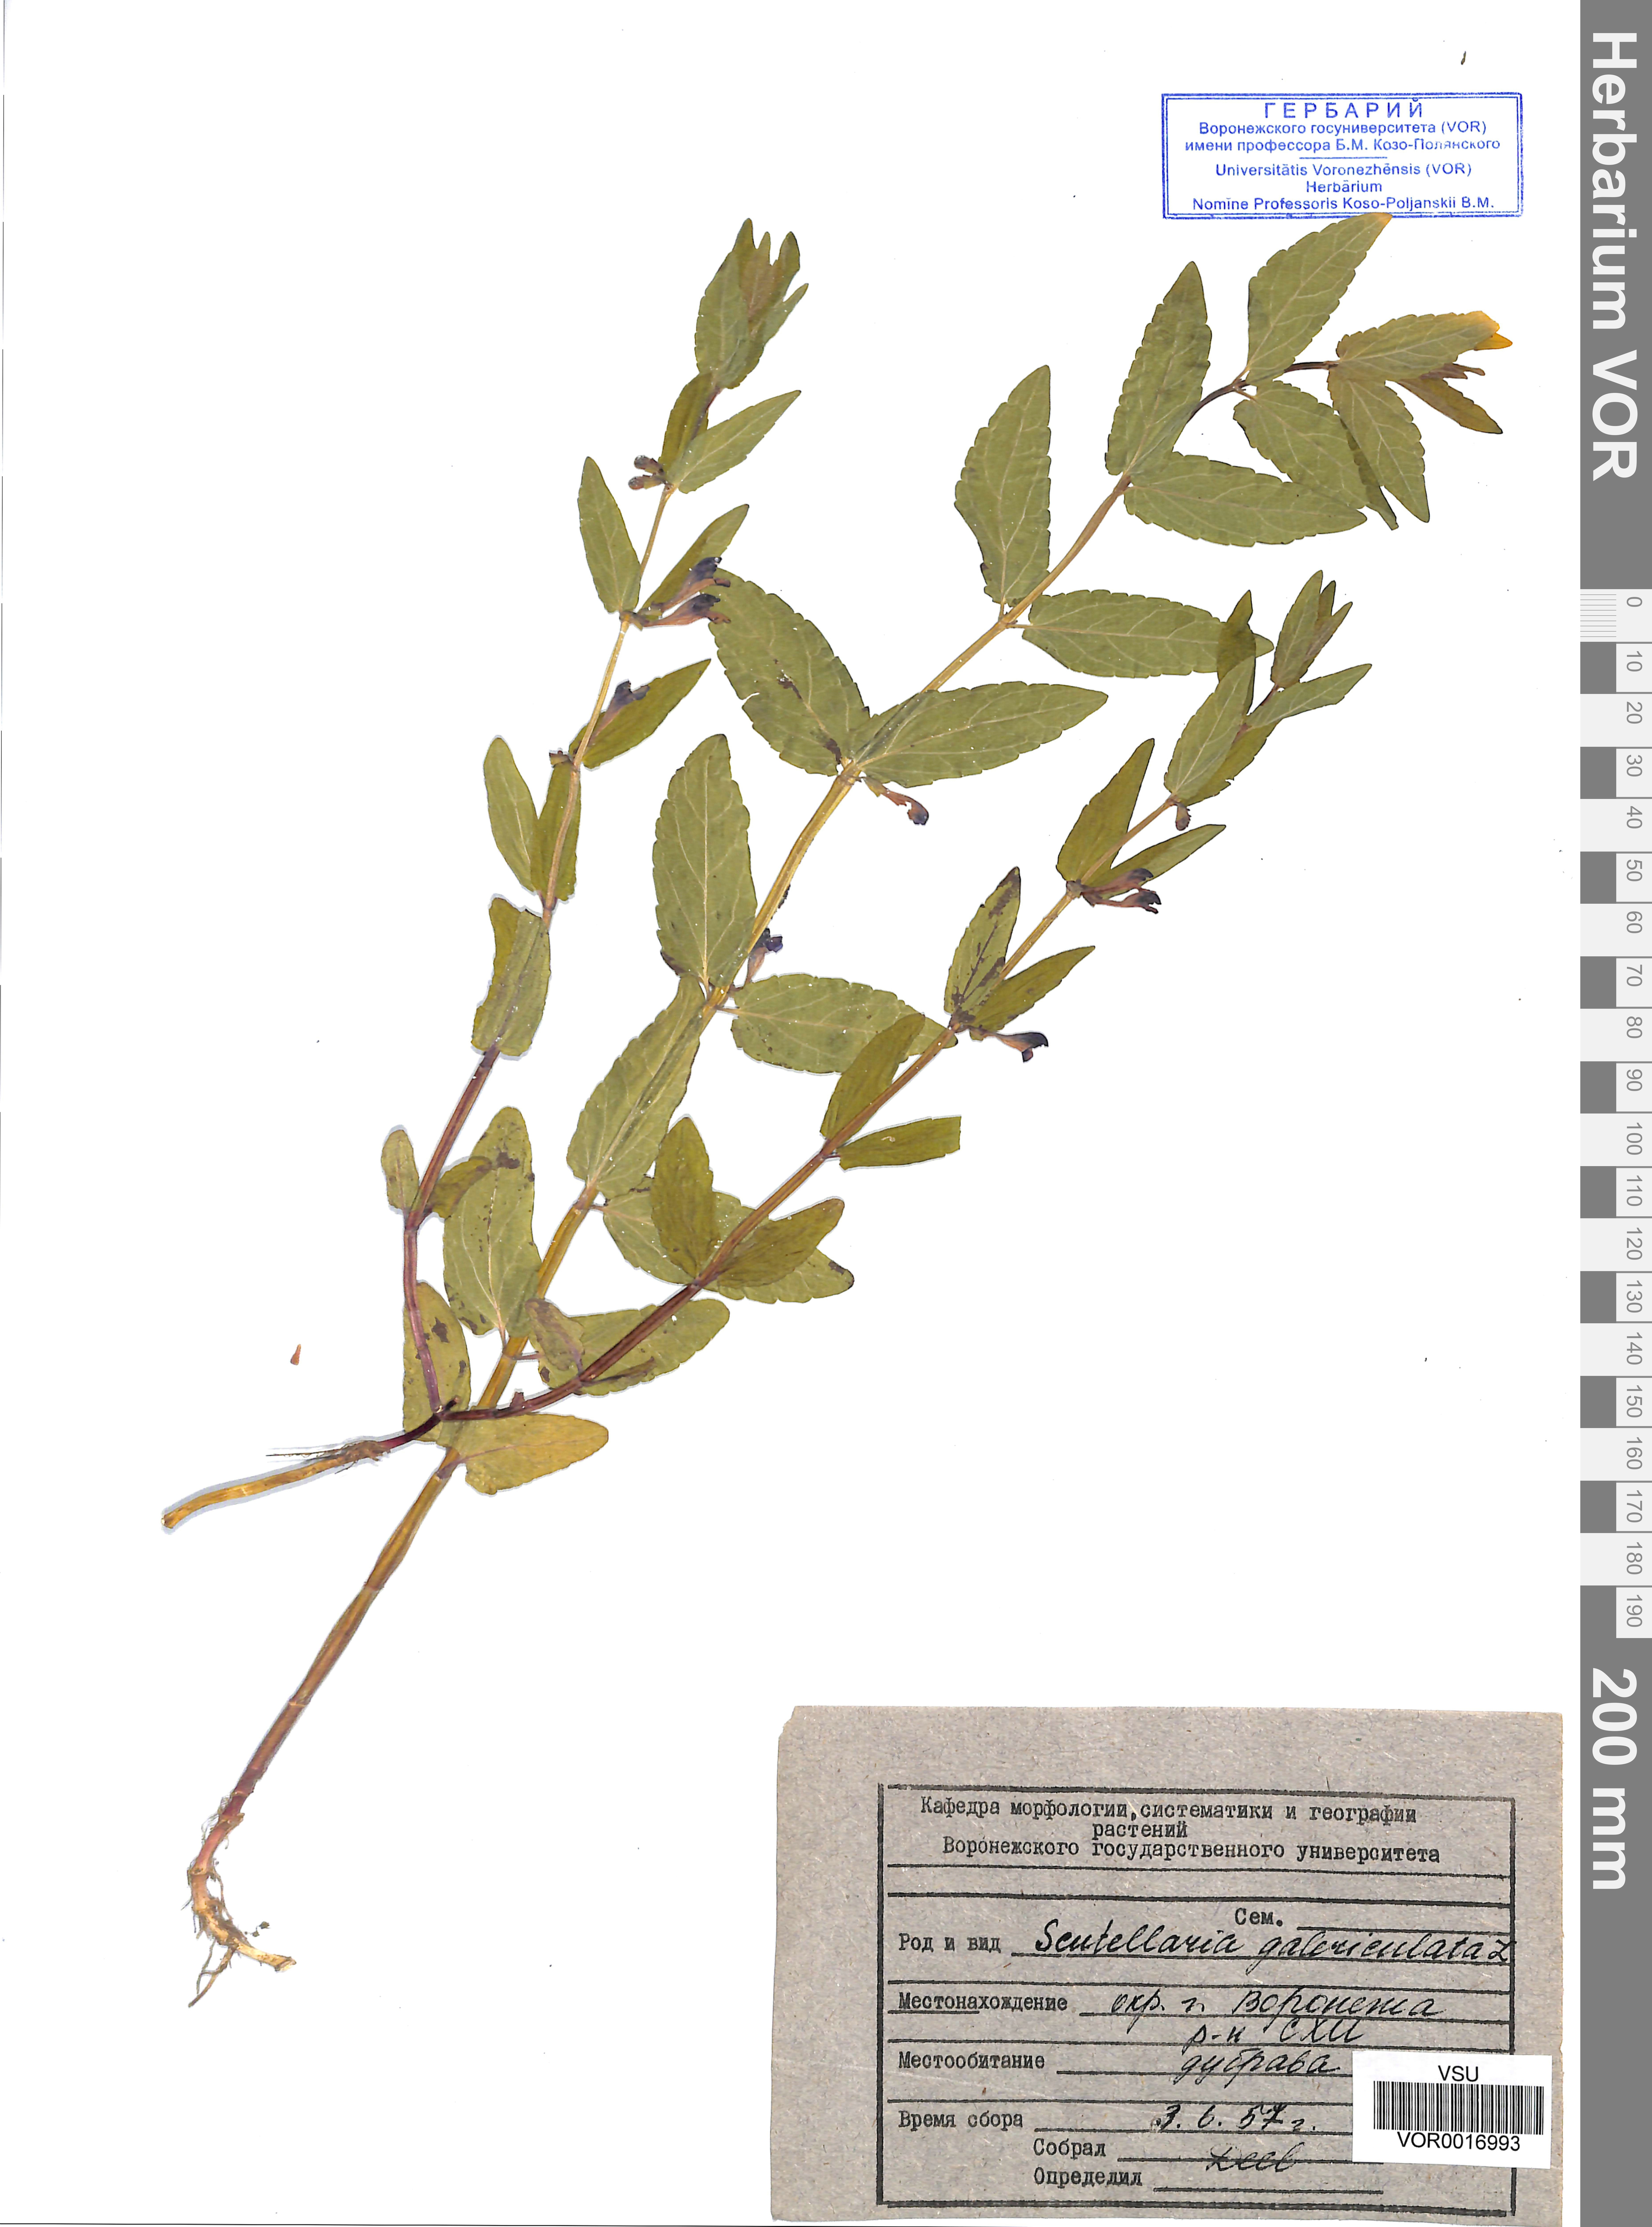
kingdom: Plantae
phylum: Tracheophyta
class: Magnoliopsida
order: Lamiales
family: Lamiaceae
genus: Scutellaria
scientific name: Scutellaria galericulata
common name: Skullcap
